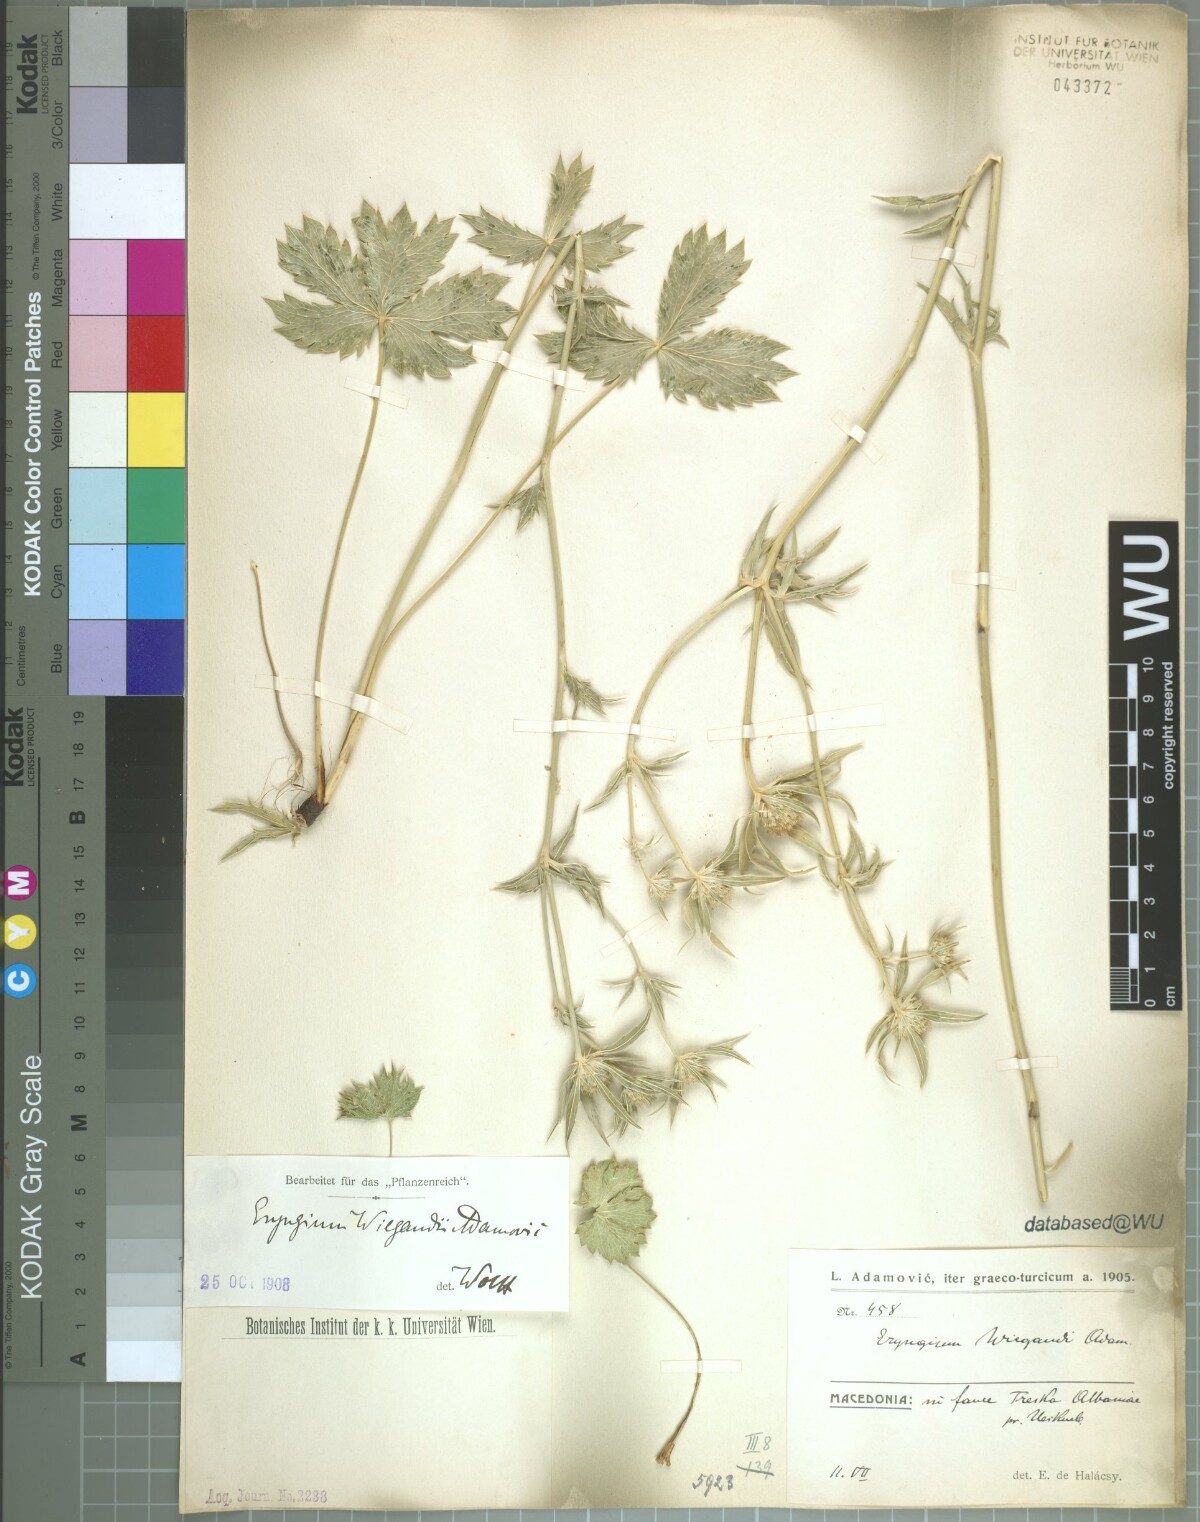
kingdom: Plantae
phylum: Tracheophyta
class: Magnoliopsida
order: Apiales
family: Apiaceae
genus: Eryngium
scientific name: Eryngium wiegandii
